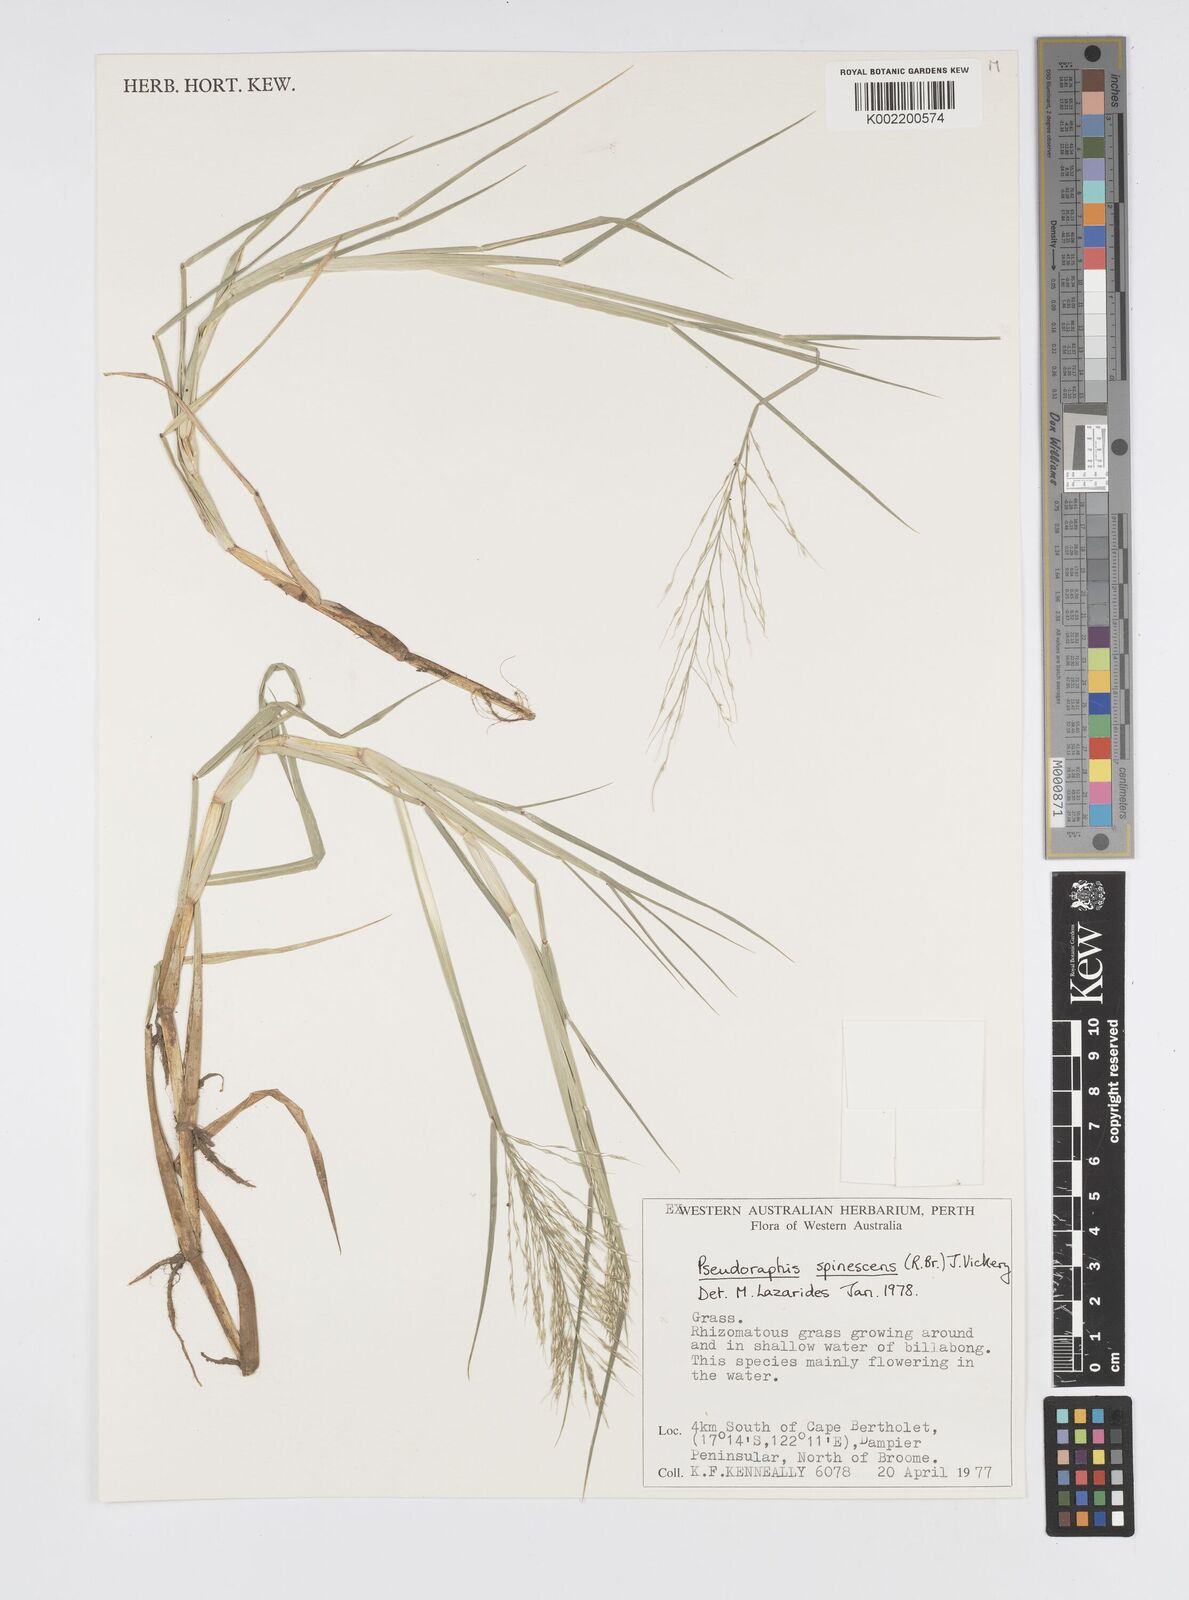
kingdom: Plantae
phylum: Tracheophyta
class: Liliopsida
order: Poales
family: Poaceae
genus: Pseudoraphis
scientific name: Pseudoraphis spinescens
